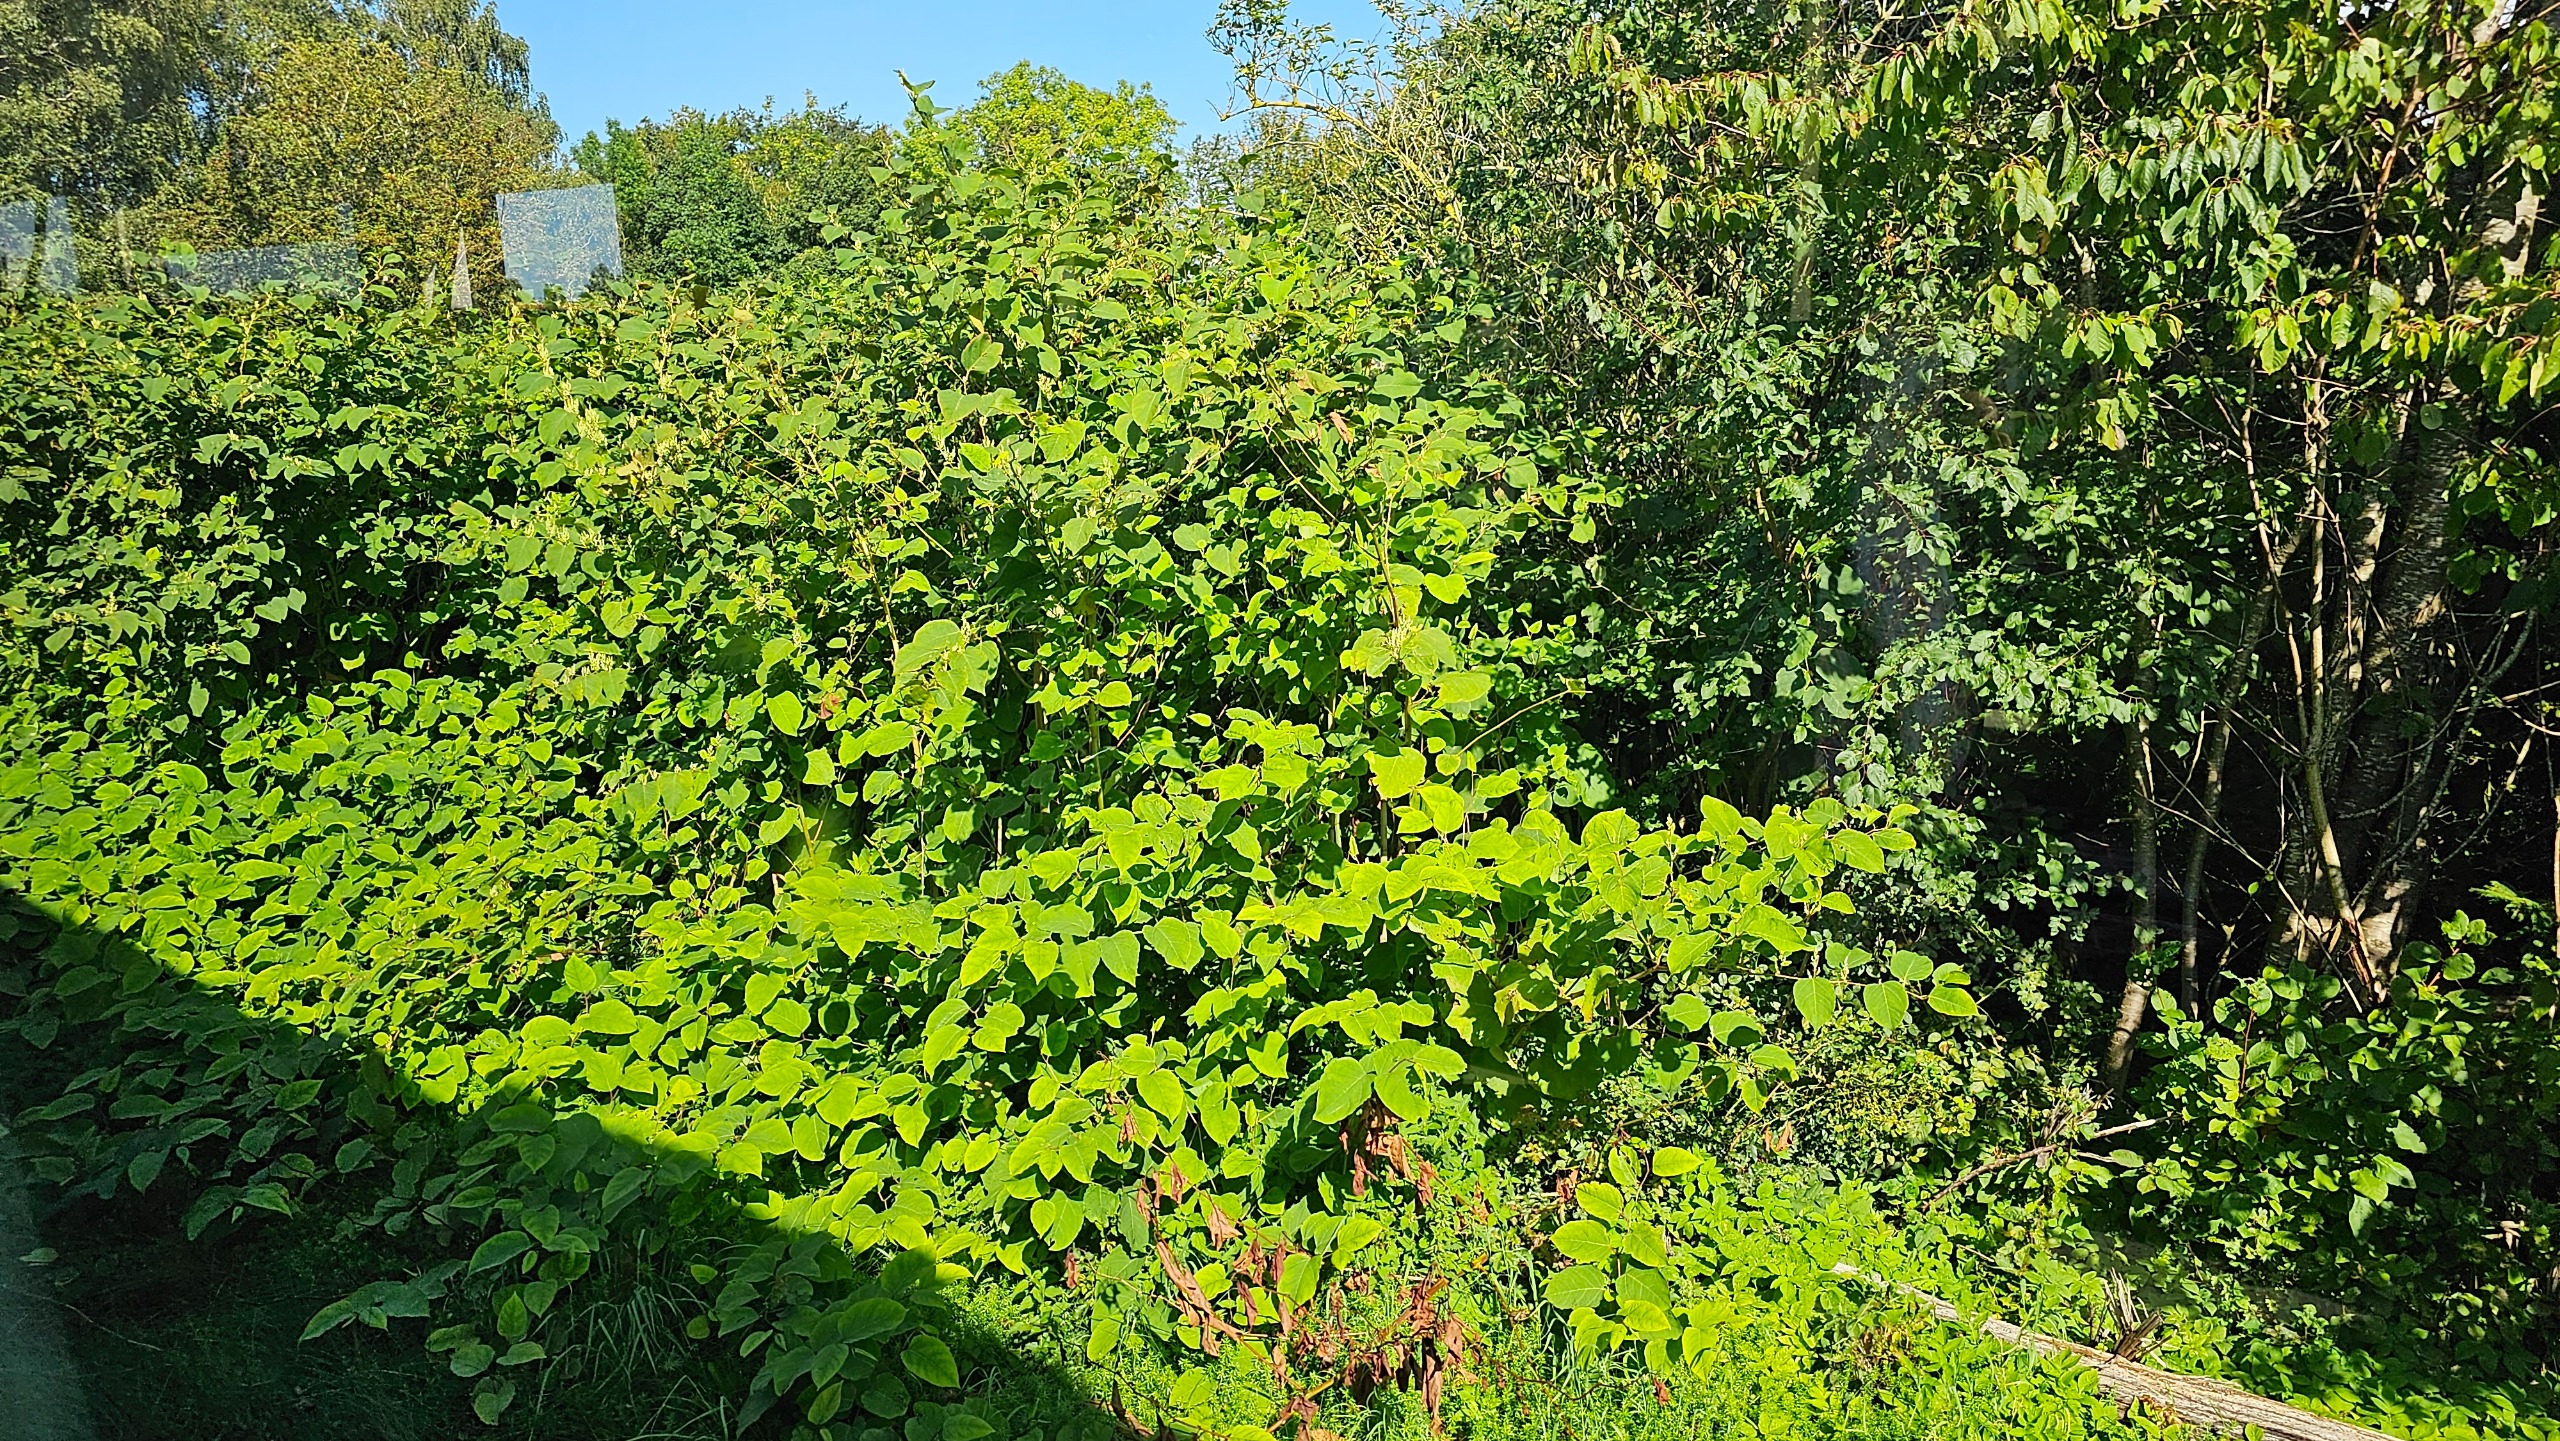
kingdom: Plantae
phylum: Tracheophyta
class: Magnoliopsida
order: Caryophyllales
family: Polygonaceae
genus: Reynoutria
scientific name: Reynoutria japonica
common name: Japan-pileurt
